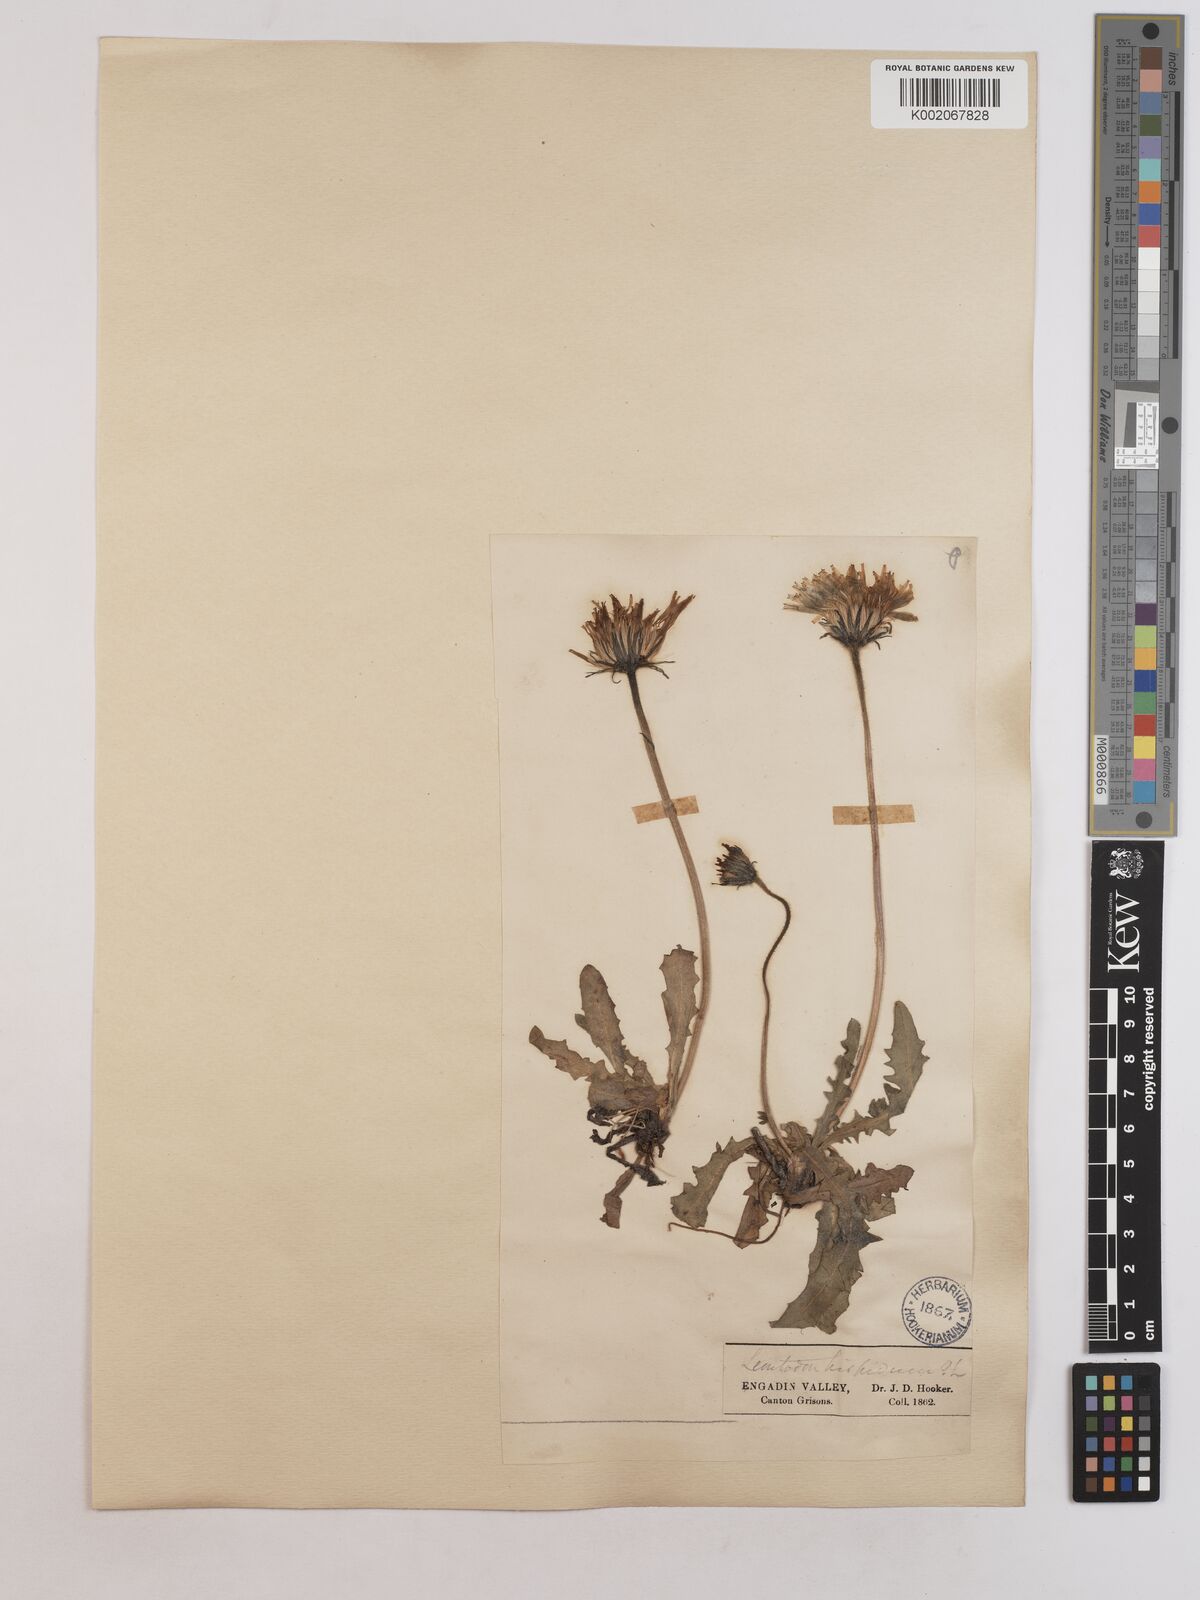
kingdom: Plantae
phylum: Tracheophyta
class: Magnoliopsida
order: Asterales
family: Asteraceae
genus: Leontodon
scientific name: Leontodon hispidus
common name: Rough hawkbit
